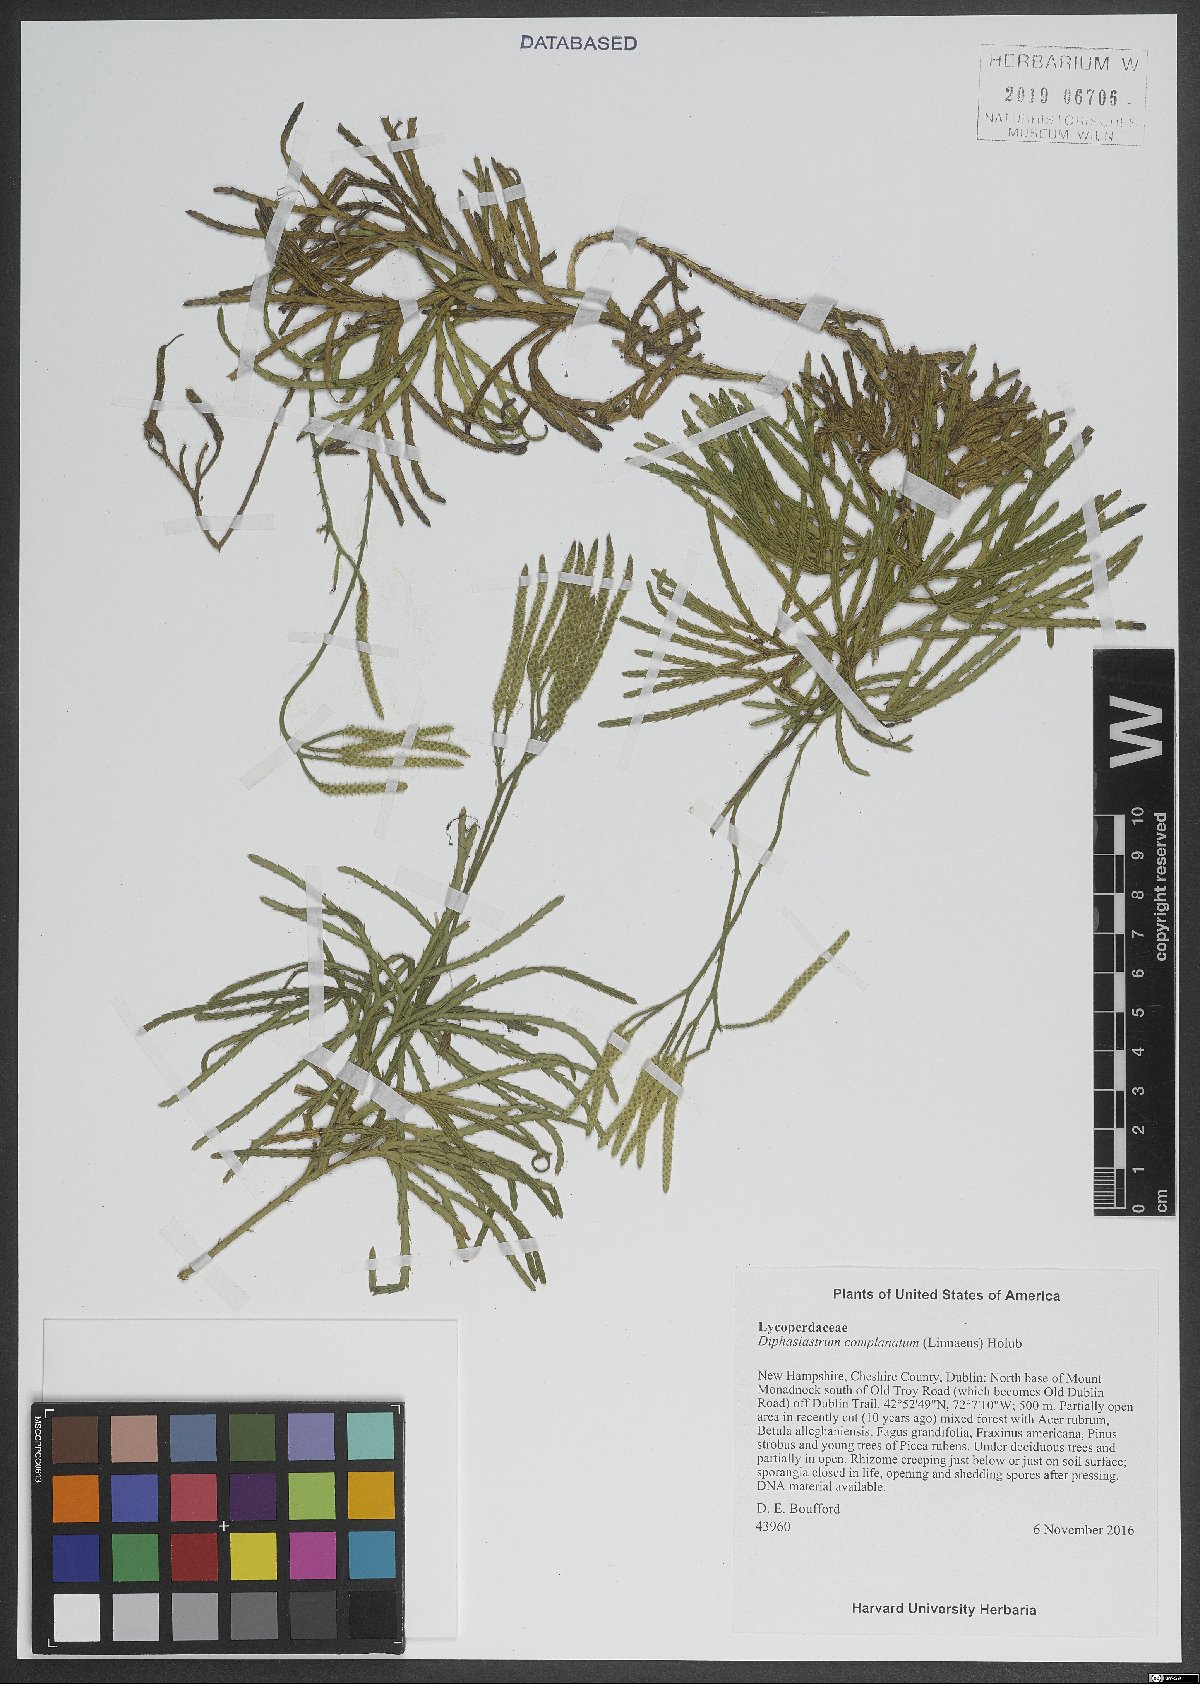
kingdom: Plantae
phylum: Tracheophyta
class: Lycopodiopsida
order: Lycopodiales
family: Lycopodiaceae
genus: Diphasiastrum
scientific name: Diphasiastrum complanatum
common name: Northern running-pine
